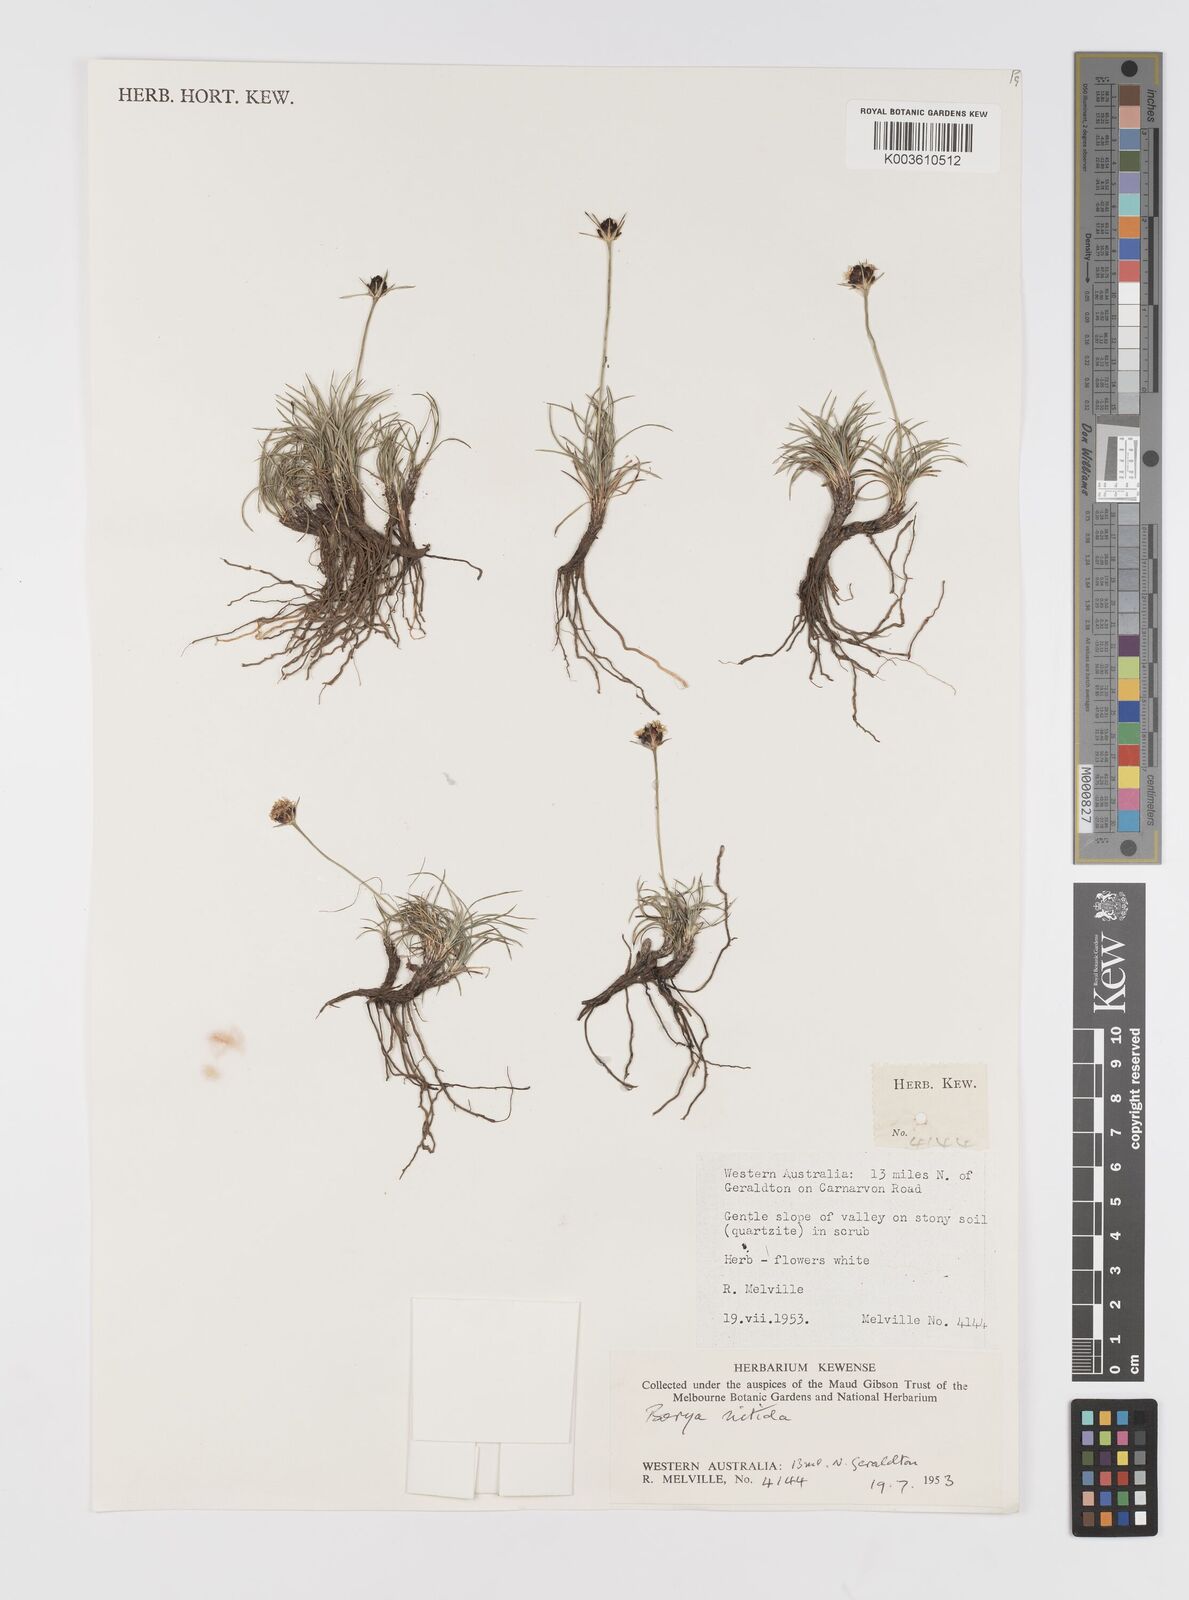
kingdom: Plantae
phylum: Tracheophyta
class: Liliopsida
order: Asparagales
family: Boryaceae
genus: Borya
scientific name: Borya nitida
